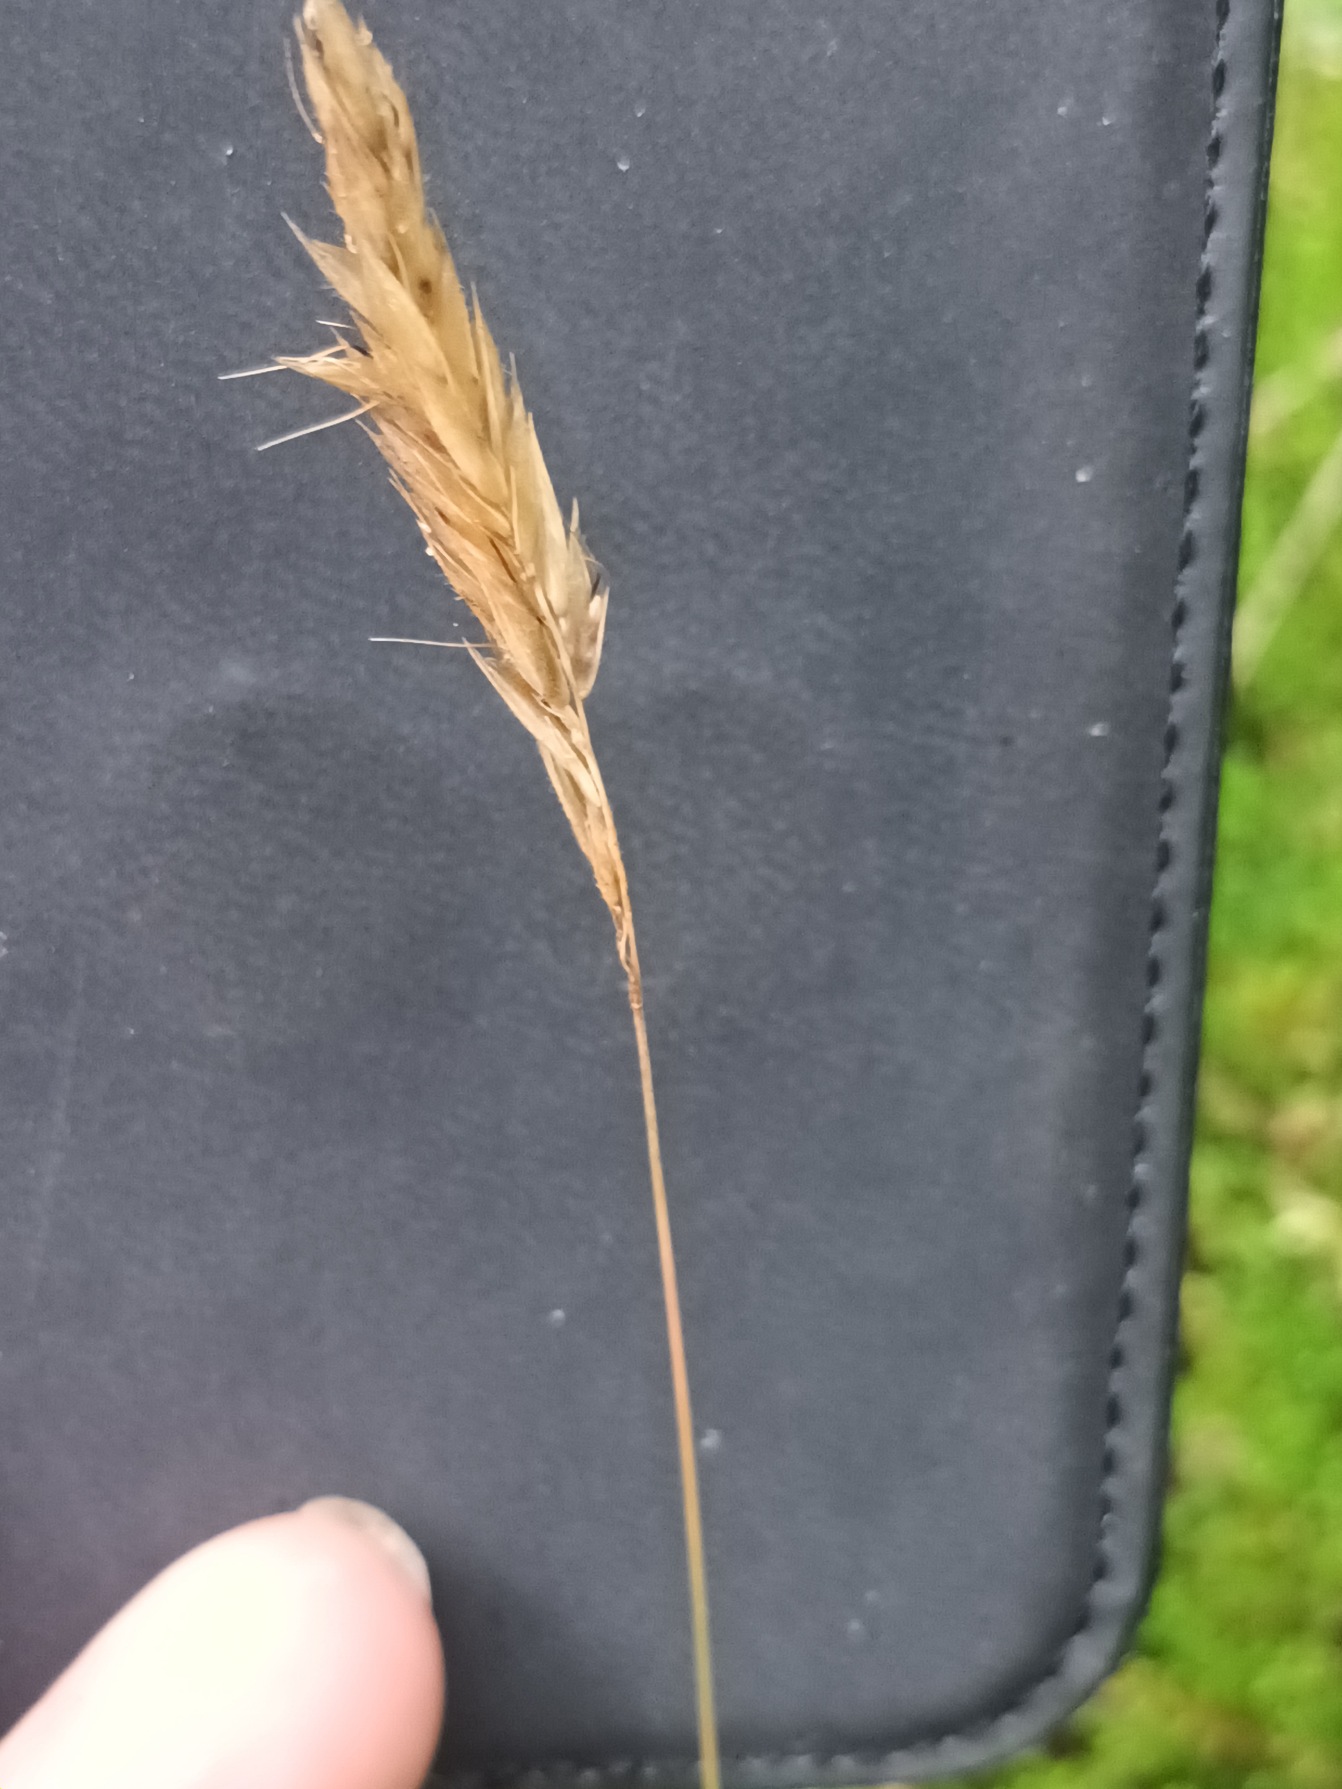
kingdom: Plantae
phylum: Tracheophyta
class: Liliopsida
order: Poales
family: Poaceae
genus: Anthoxanthum
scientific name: Anthoxanthum odoratum
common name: Vellugtende gulaks
